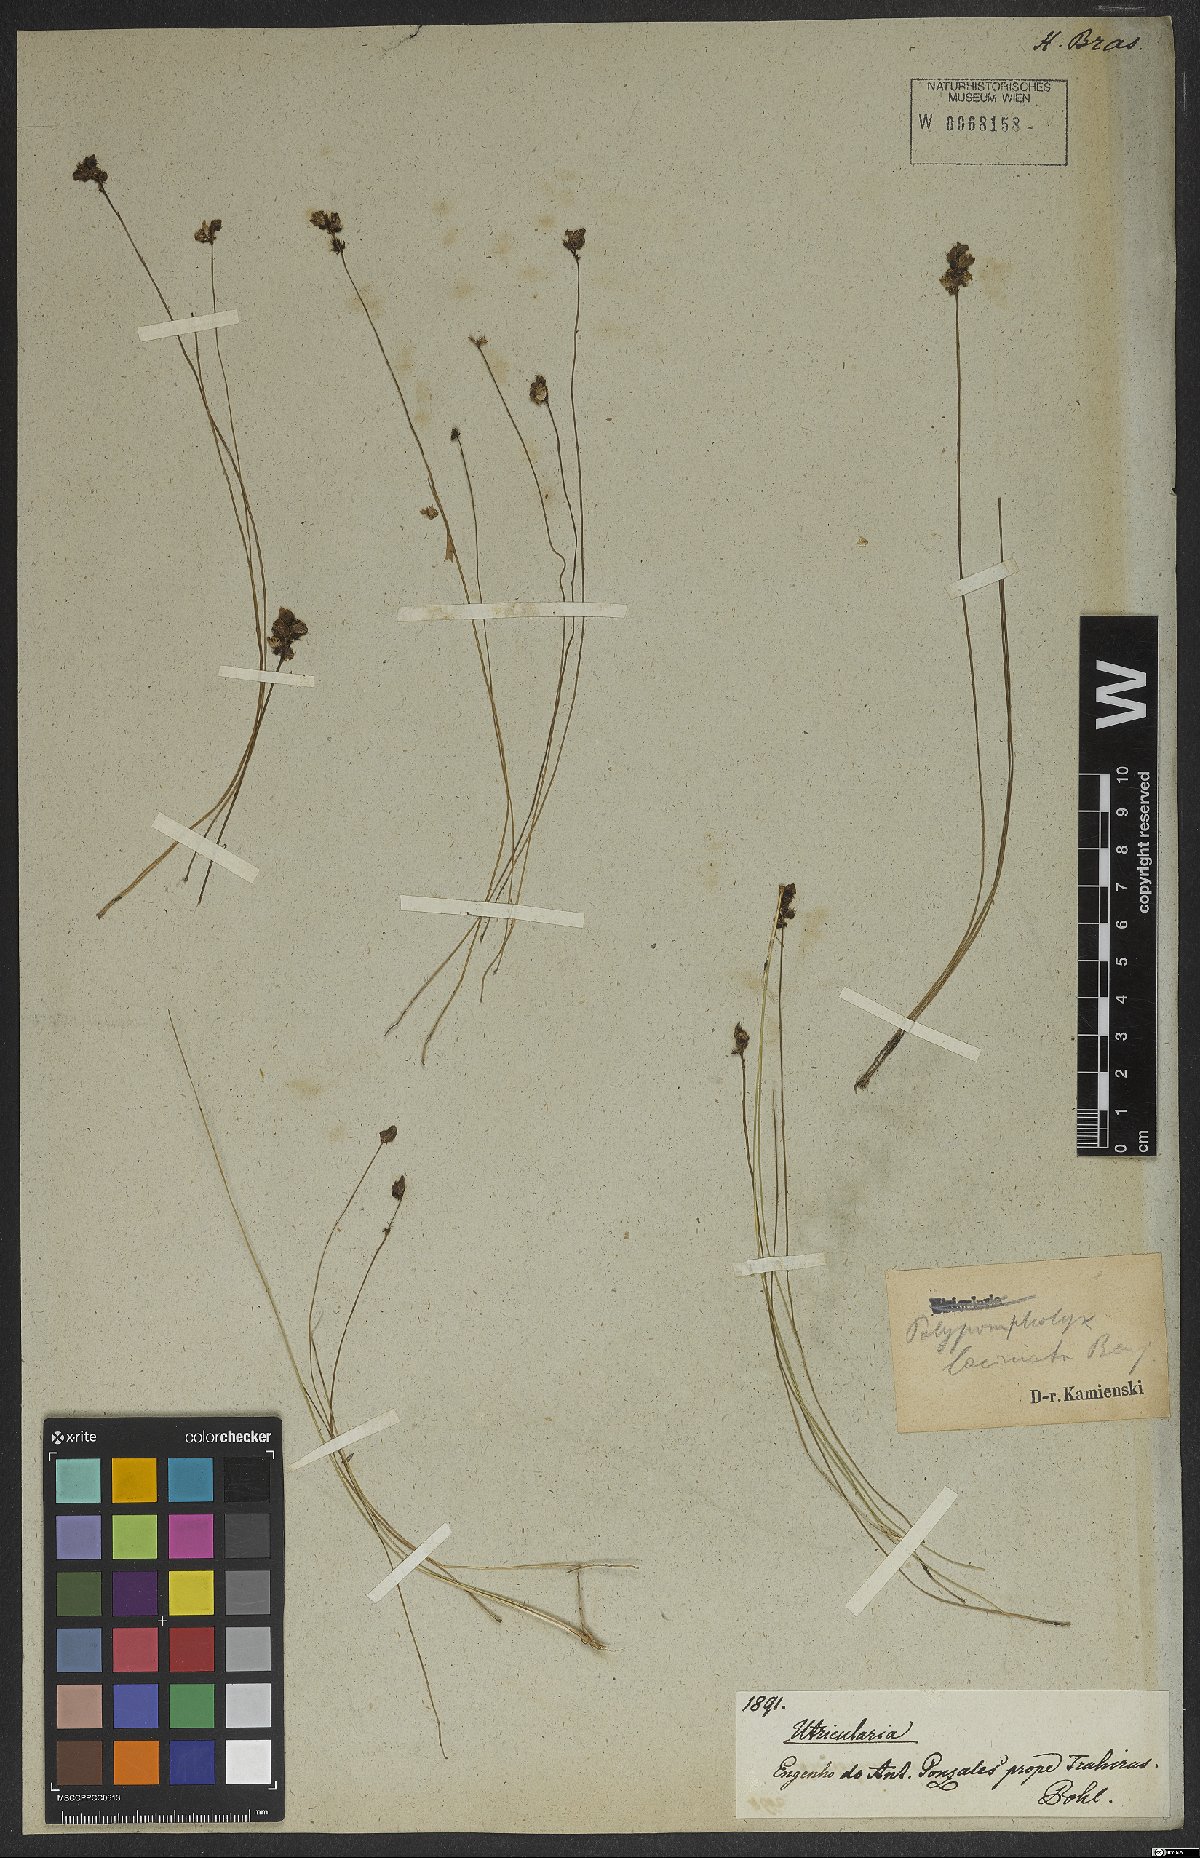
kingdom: Plantae
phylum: Tracheophyta
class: Magnoliopsida
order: Lamiales
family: Lentibulariaceae
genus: Utricularia
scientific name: Utricularia laciniata
